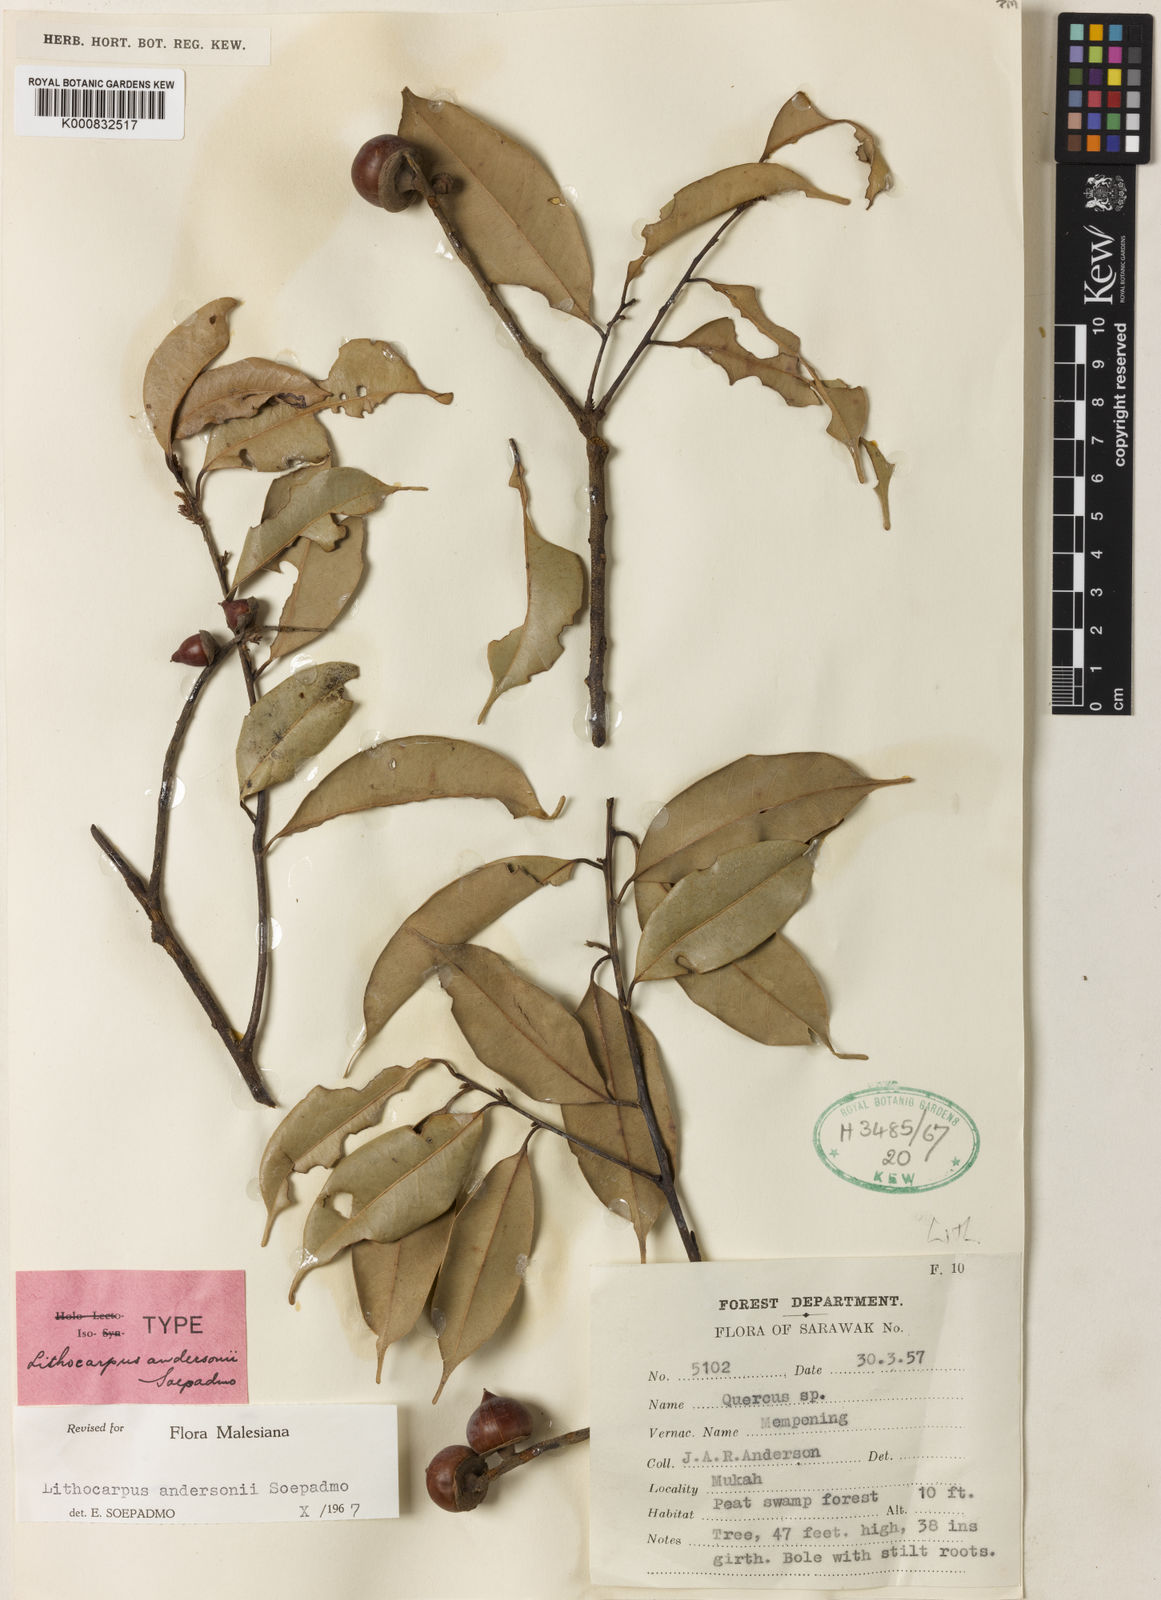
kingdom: Plantae
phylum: Tracheophyta
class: Magnoliopsida
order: Fagales
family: Fagaceae
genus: Lithocarpus
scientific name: Lithocarpus andersonii
